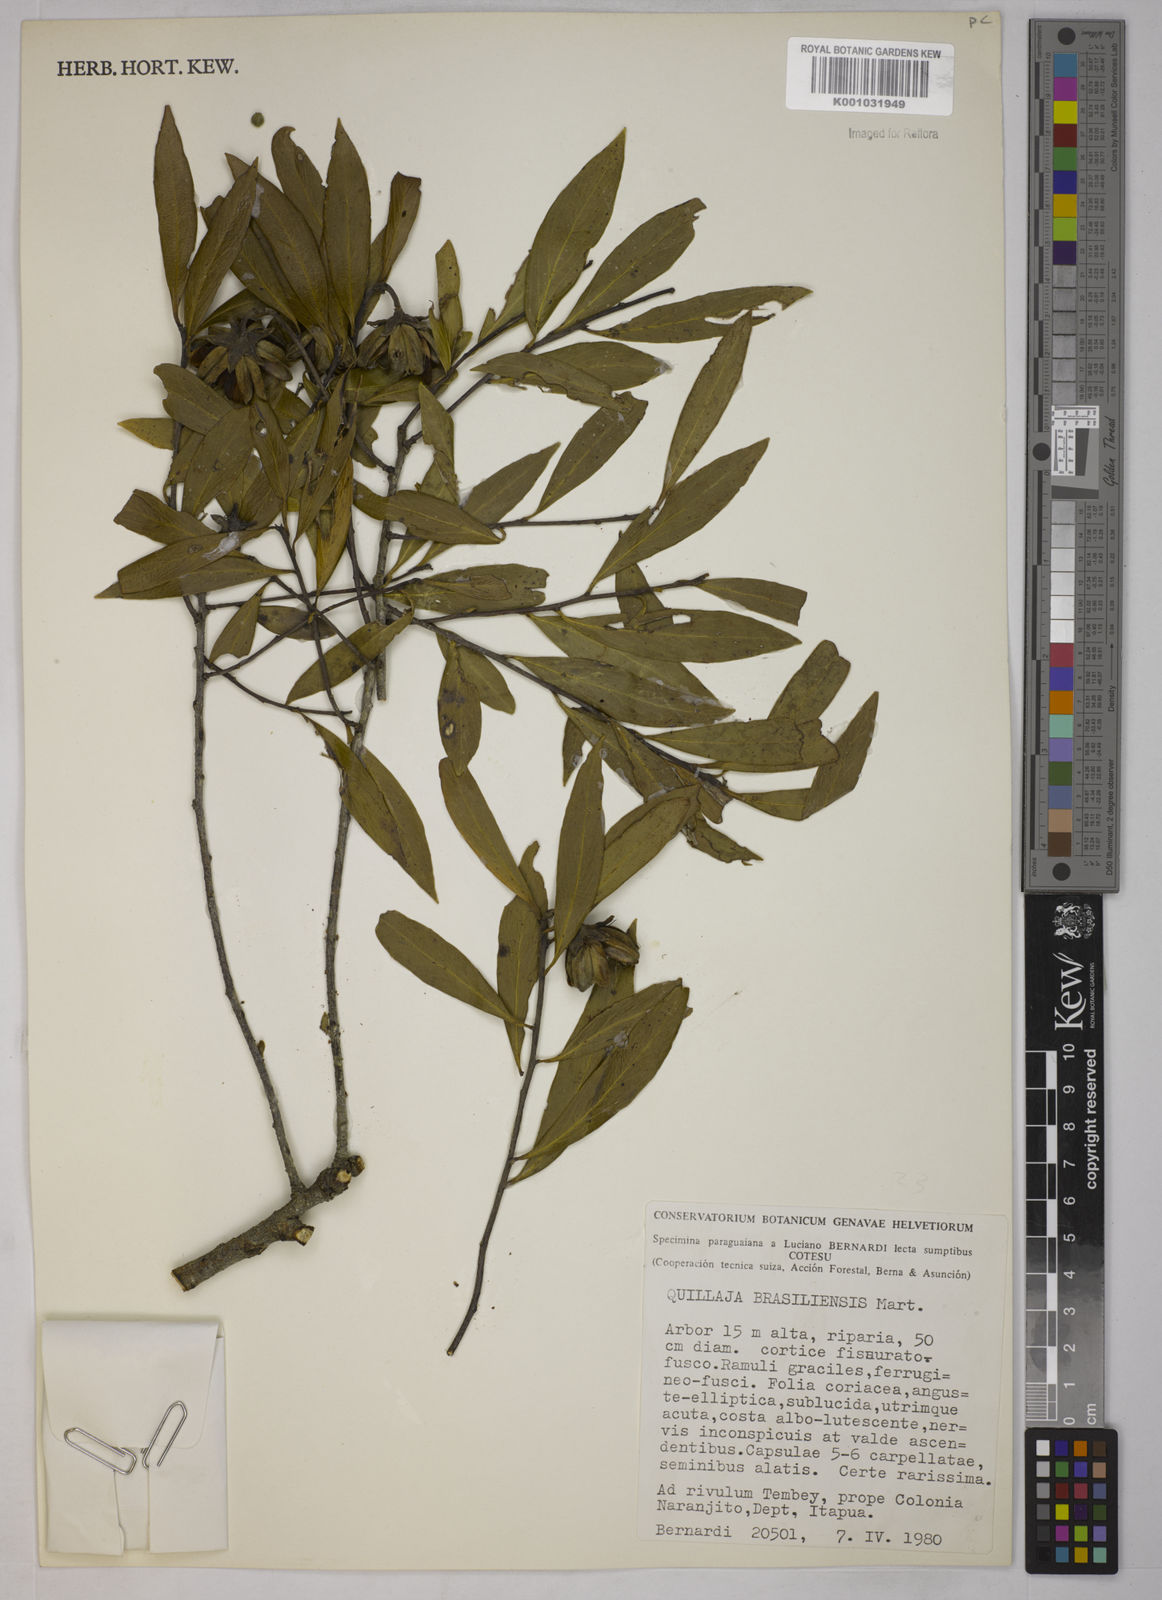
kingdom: Plantae
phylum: Tracheophyta
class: Magnoliopsida
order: Fabales
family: Quillajaceae
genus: Quillaja
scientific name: Quillaja brasiliensis
